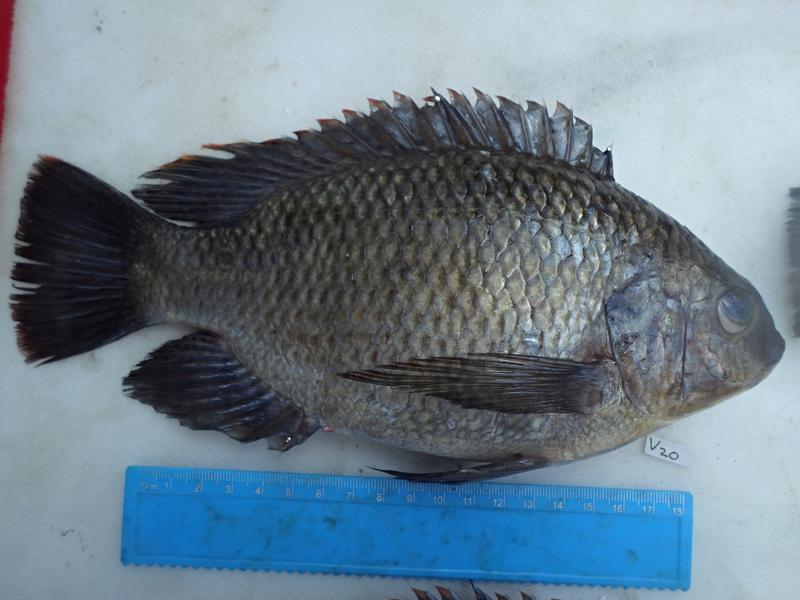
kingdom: Animalia
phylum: Chordata
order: Perciformes
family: Cichlidae
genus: Oreochromis
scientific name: Oreochromis variabilis
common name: Victoria tilapia
